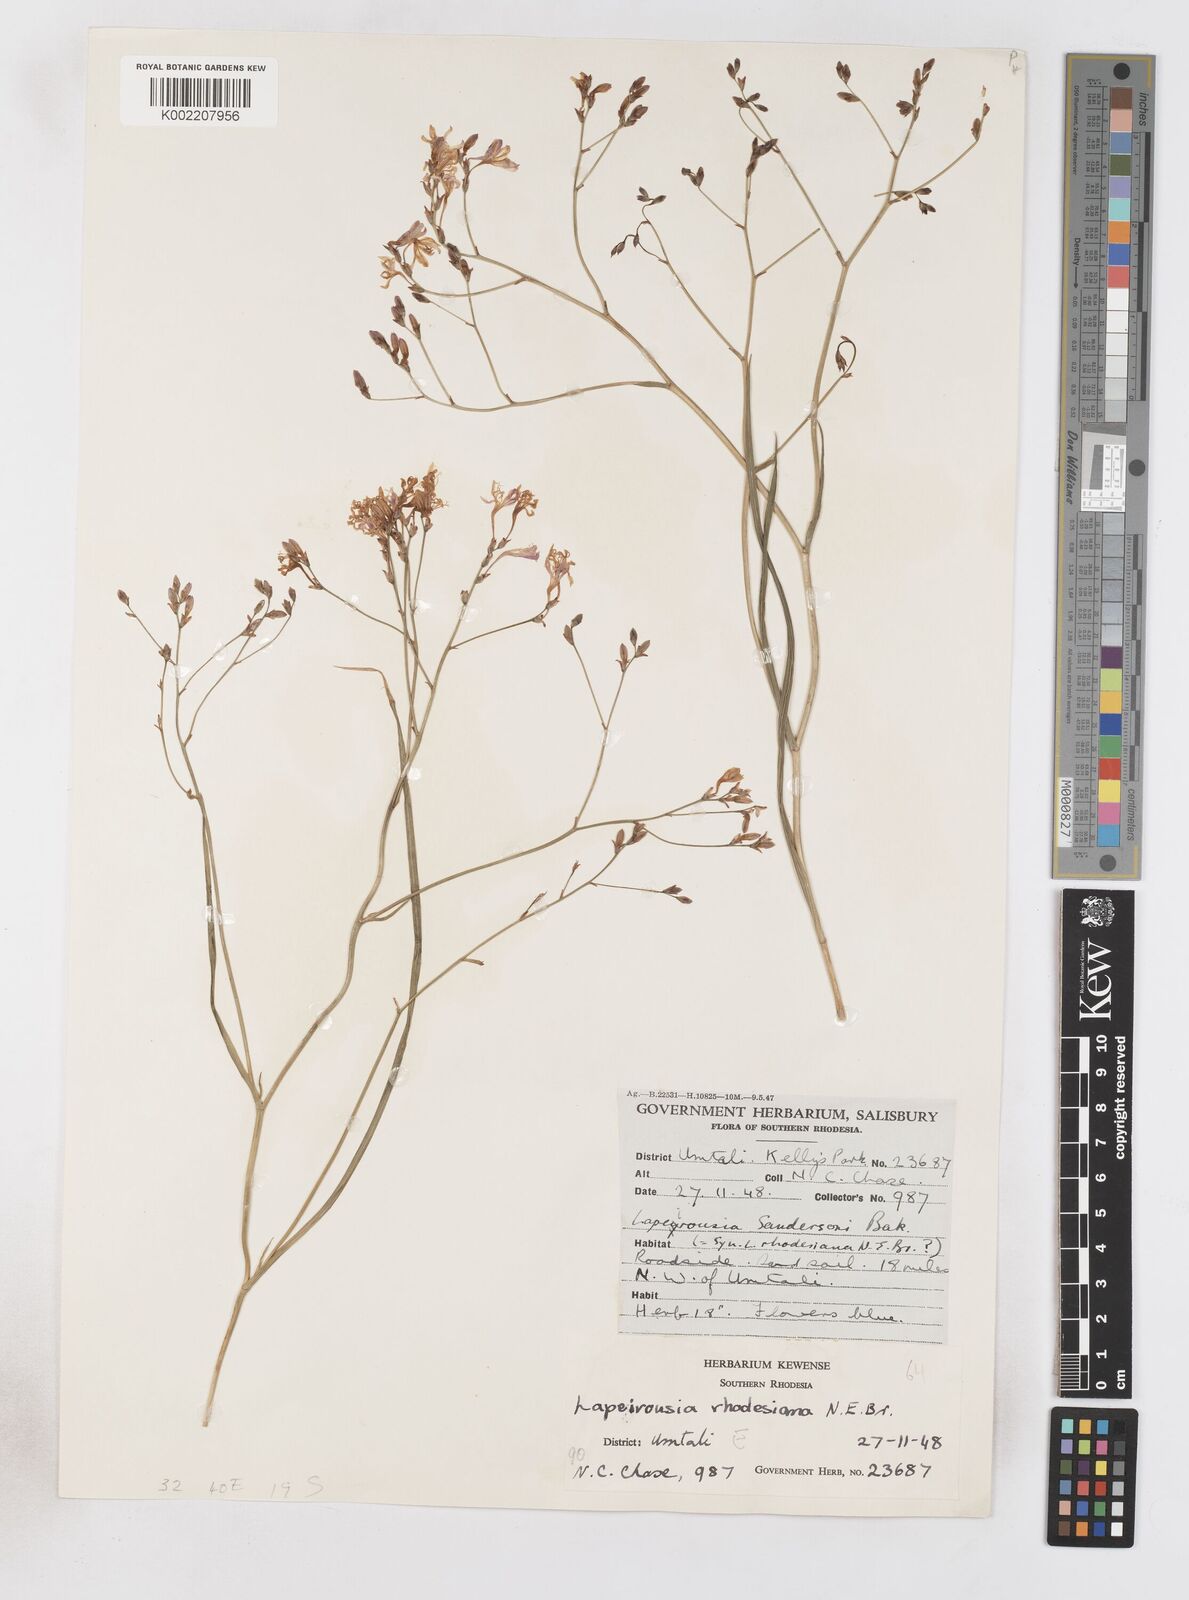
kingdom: Plantae
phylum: Tracheophyta
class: Liliopsida
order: Asparagales
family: Iridaceae
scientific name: Iridaceae
